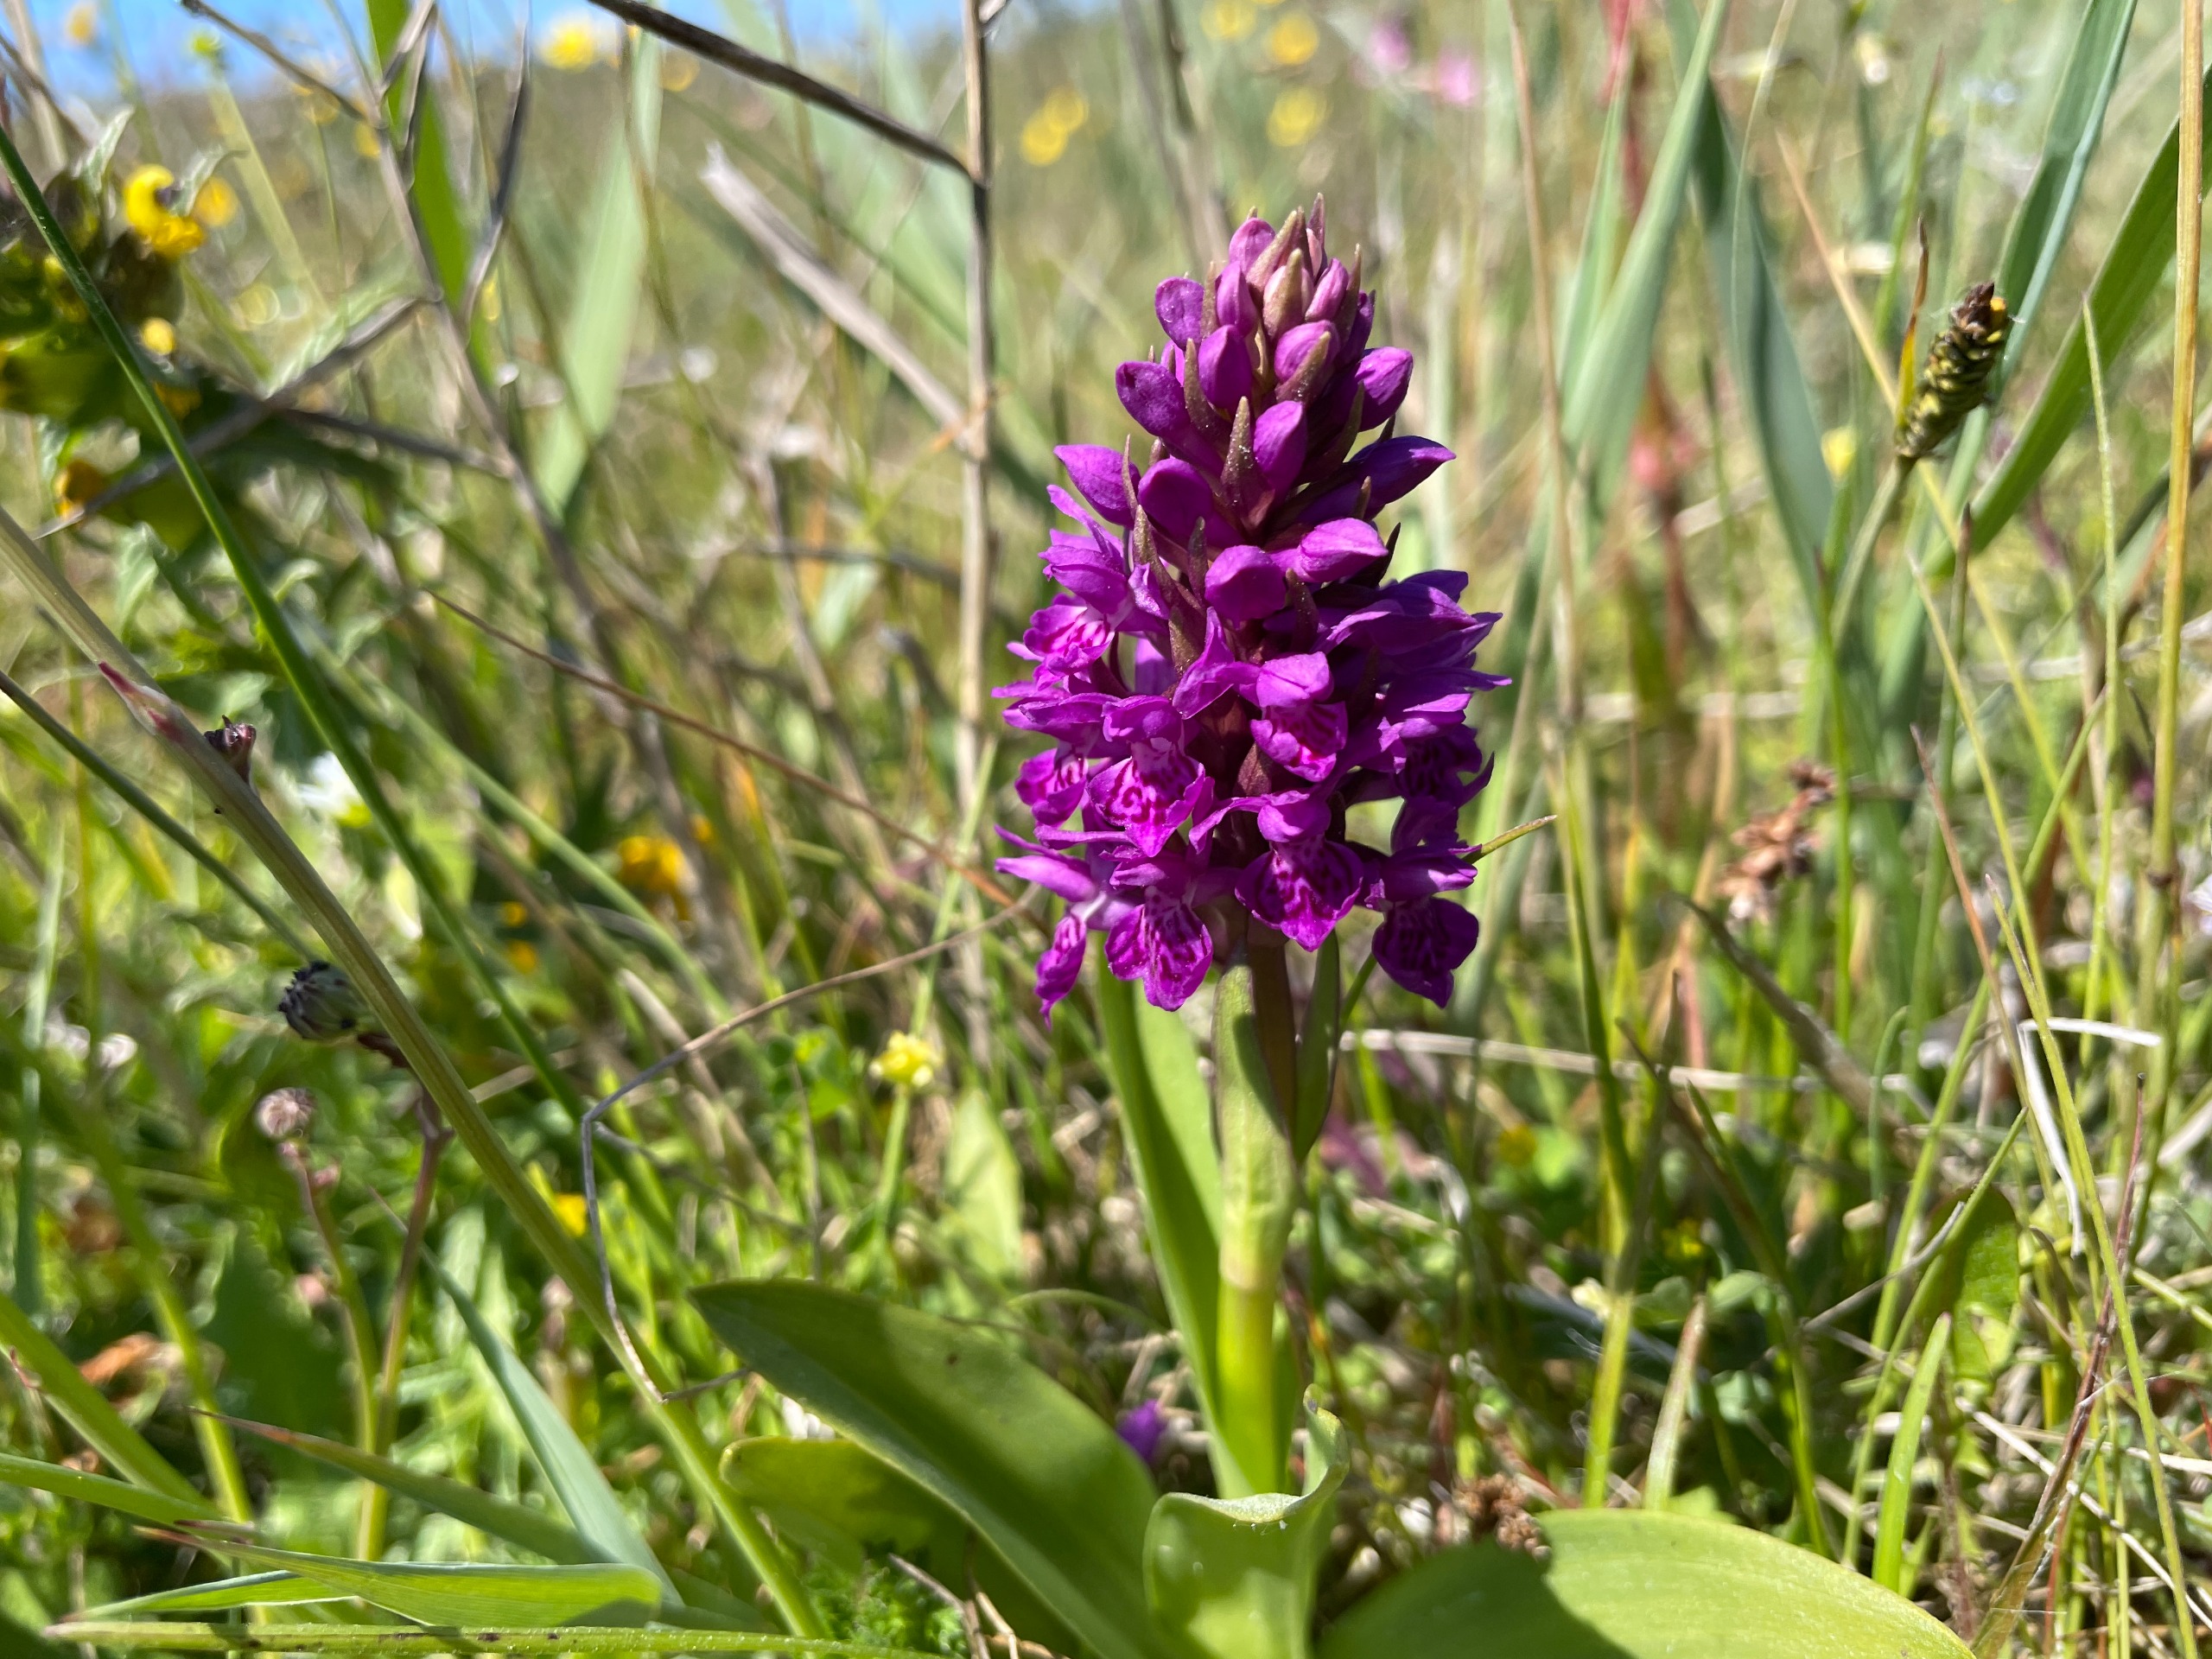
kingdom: Plantae
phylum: Tracheophyta
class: Liliopsida
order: Asparagales
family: Orchidaceae
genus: Dactylorhiza
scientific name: Dactylorhiza majalis
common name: Purpur-gøgeurt
